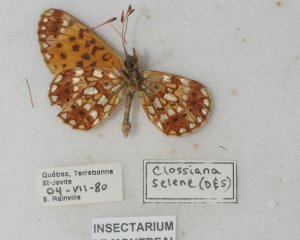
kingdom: Animalia
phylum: Arthropoda
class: Insecta
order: Lepidoptera
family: Nymphalidae
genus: Boloria
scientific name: Boloria selene
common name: Silver-bordered Fritillary
